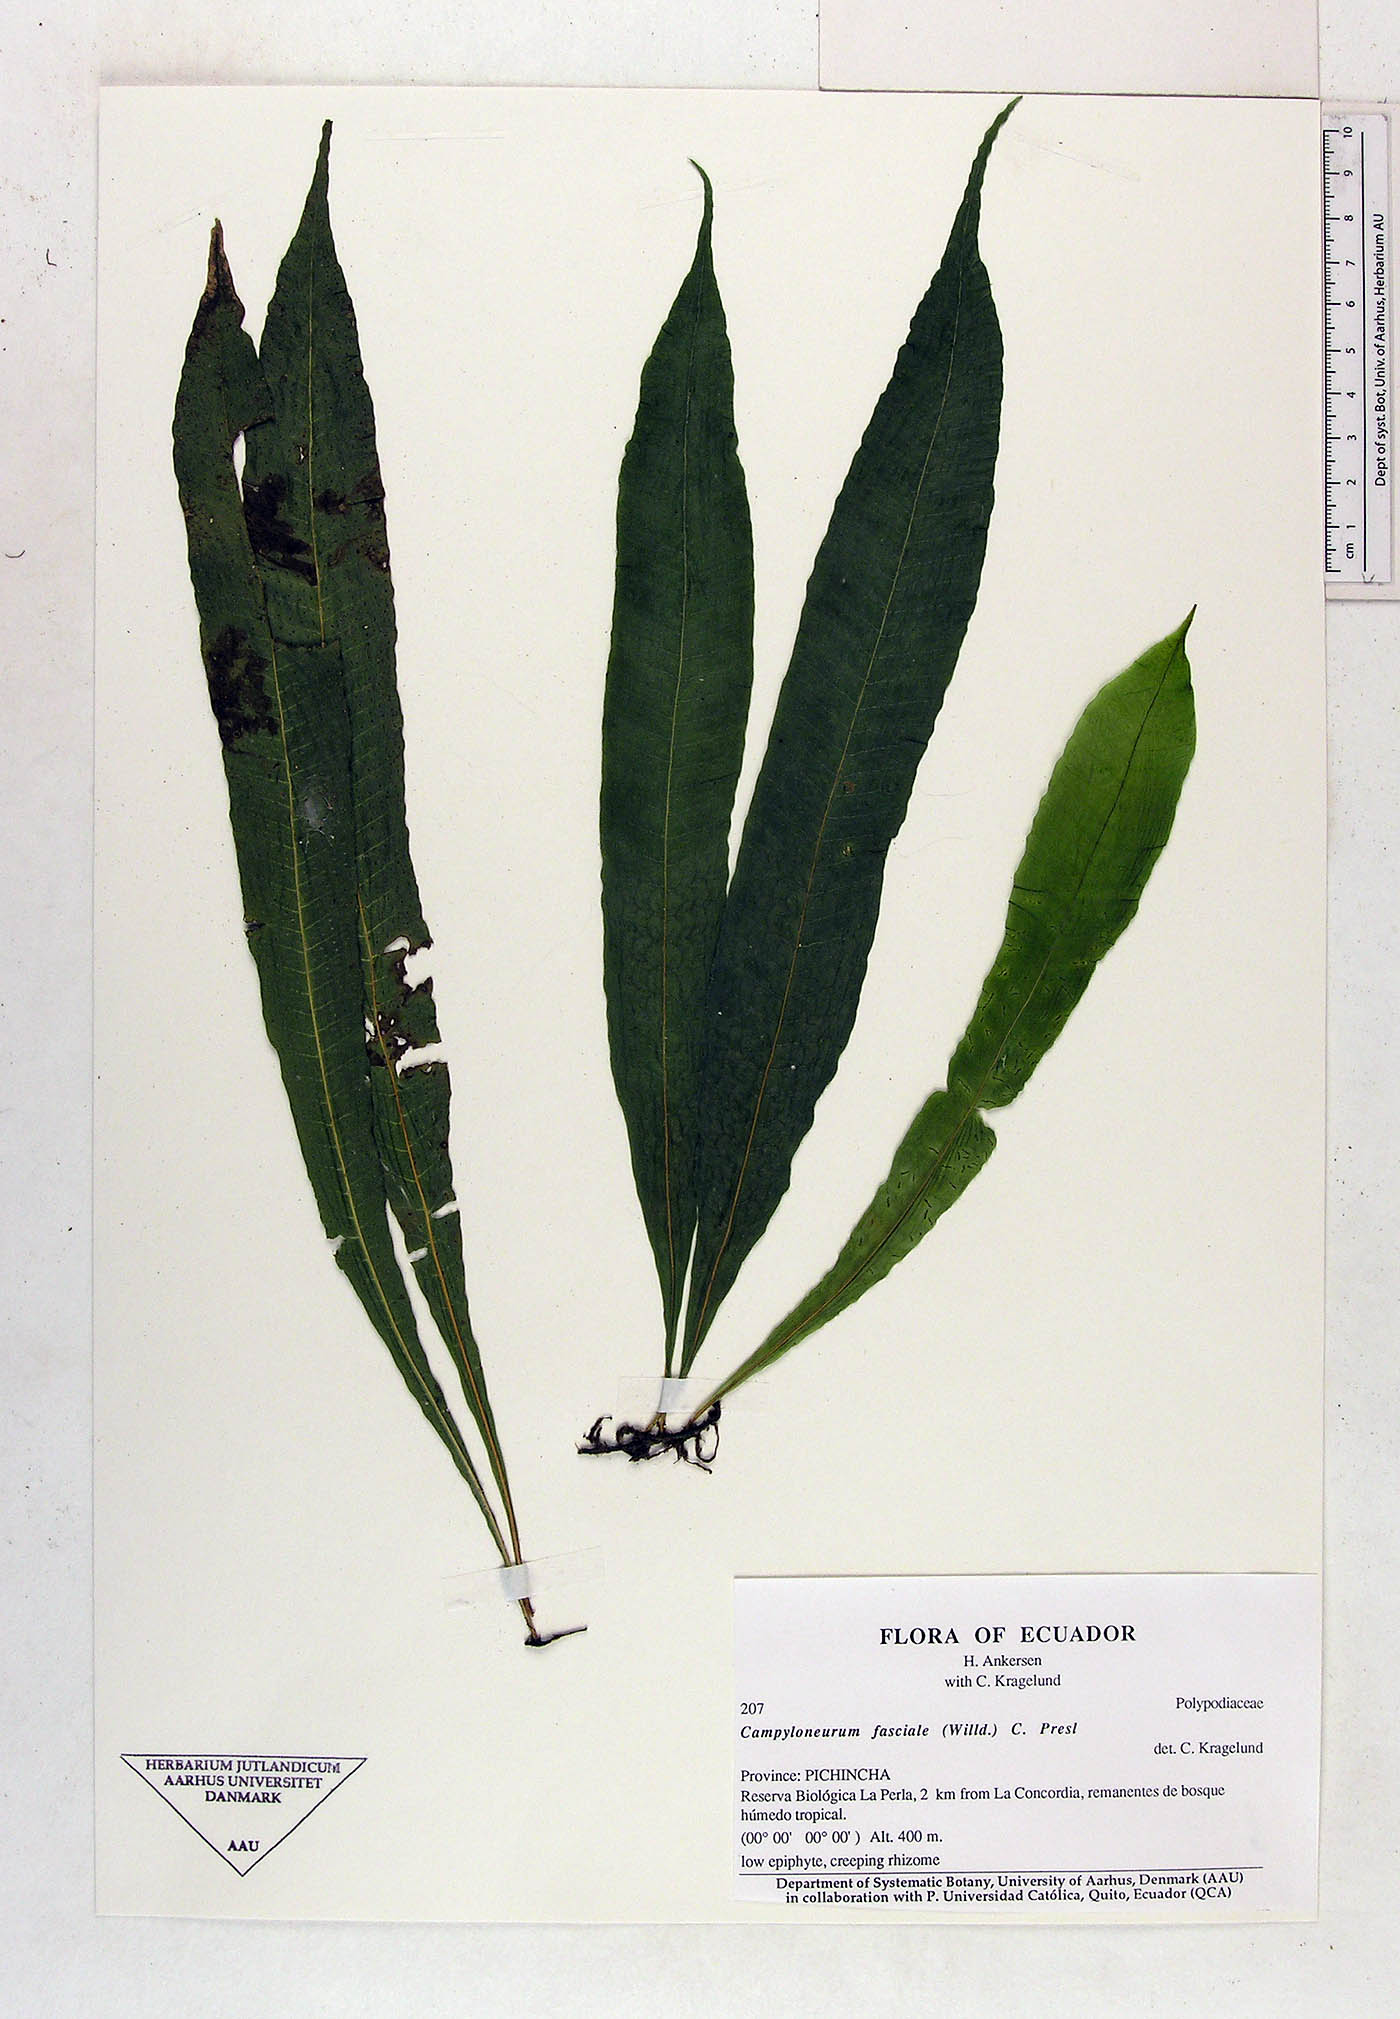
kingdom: Plantae
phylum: Tracheophyta
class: Polypodiopsida
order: Polypodiales
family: Polypodiaceae
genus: Campyloneurum
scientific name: Campyloneurum repens
